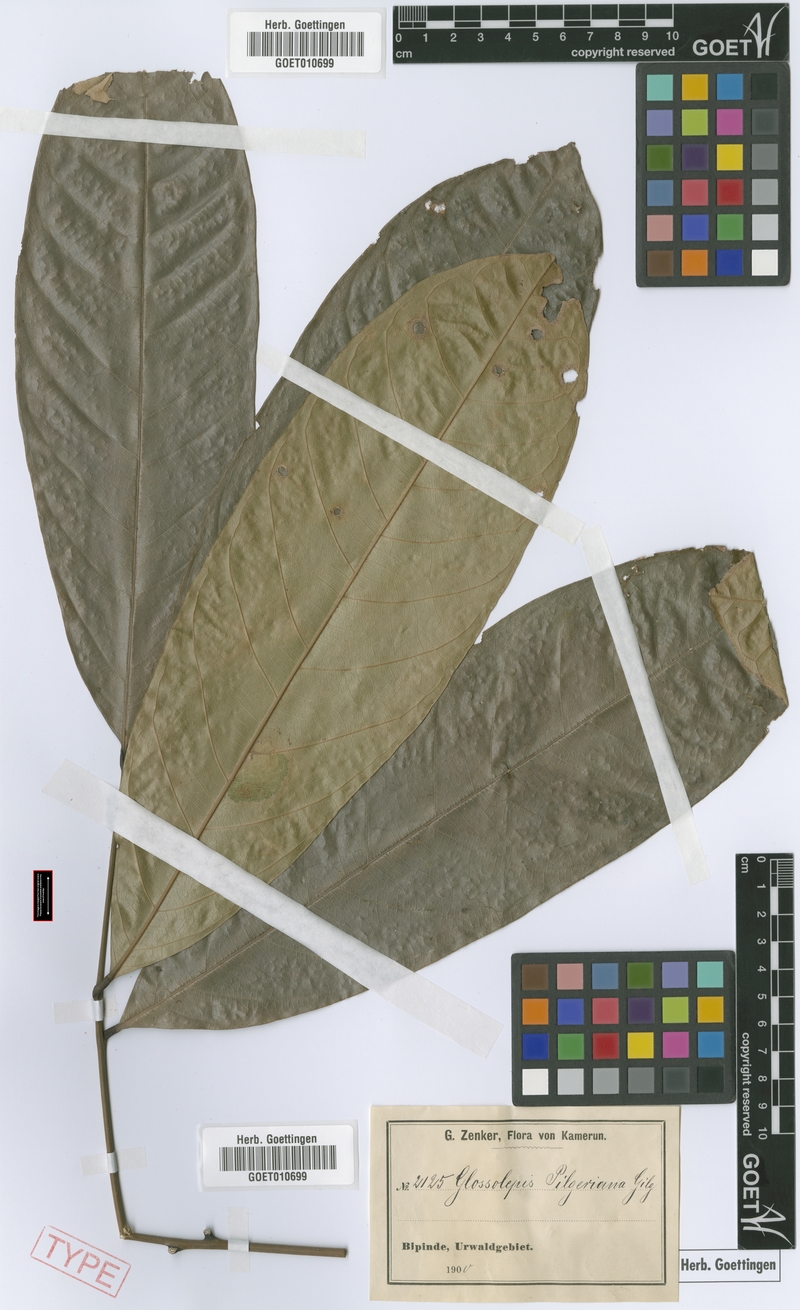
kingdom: Plantae
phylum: Tracheophyta
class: Magnoliopsida
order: Sapindales
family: Sapindaceae
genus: Chytranthus
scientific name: Chytranthus talbotii
